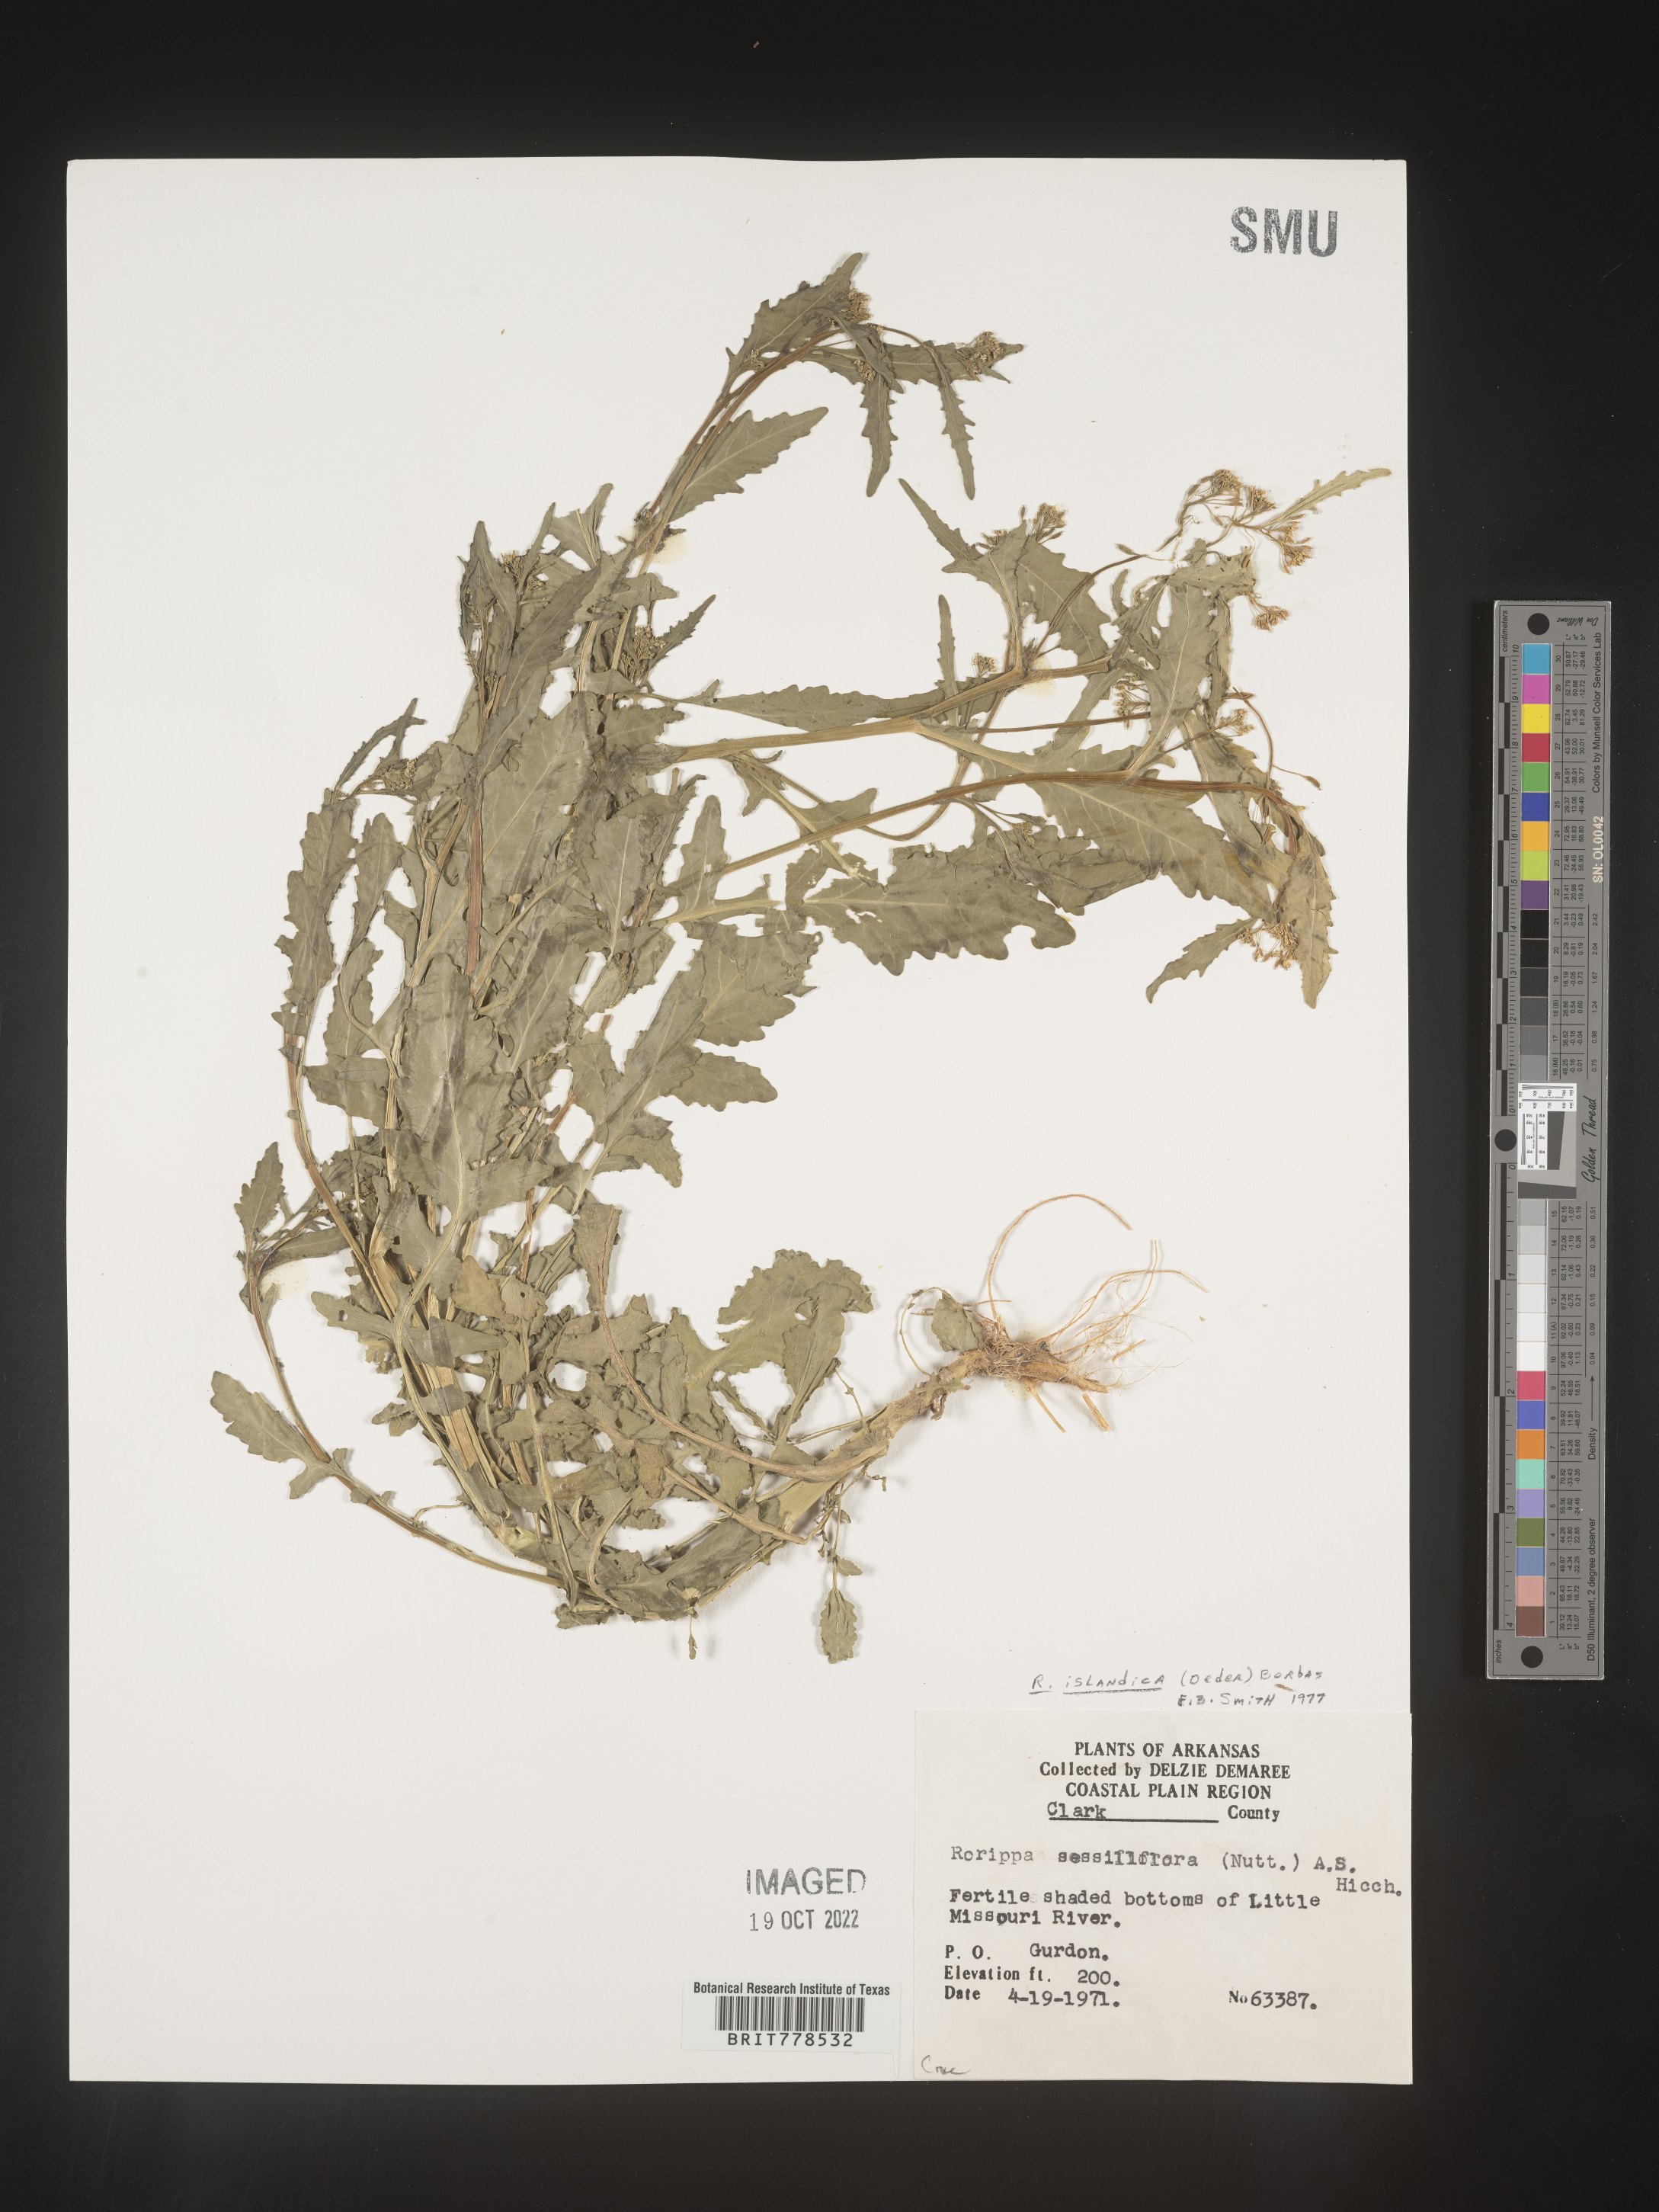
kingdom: Plantae
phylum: Tracheophyta
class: Magnoliopsida
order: Brassicales
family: Brassicaceae
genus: Rorippa
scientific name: Rorippa
